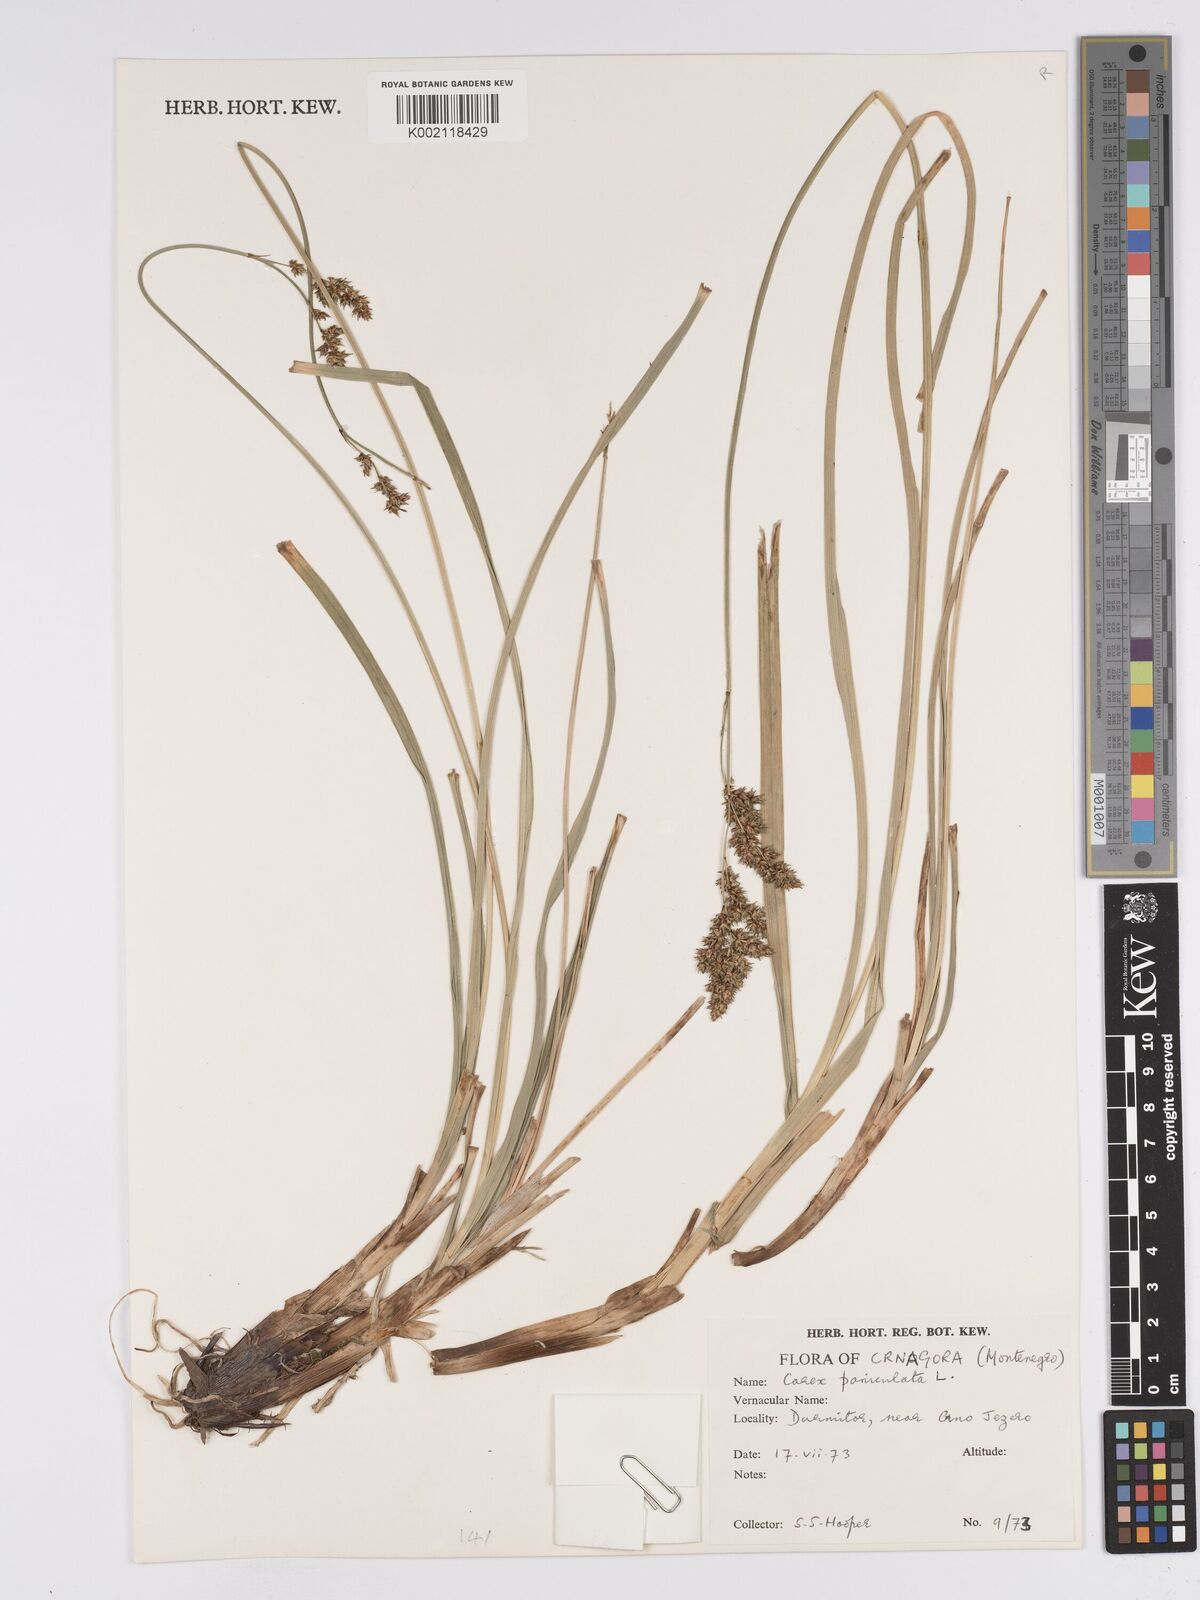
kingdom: Plantae
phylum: Tracheophyta
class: Liliopsida
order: Poales
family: Cyperaceae
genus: Carex
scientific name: Carex paniculata
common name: Greater tussock-sedge
